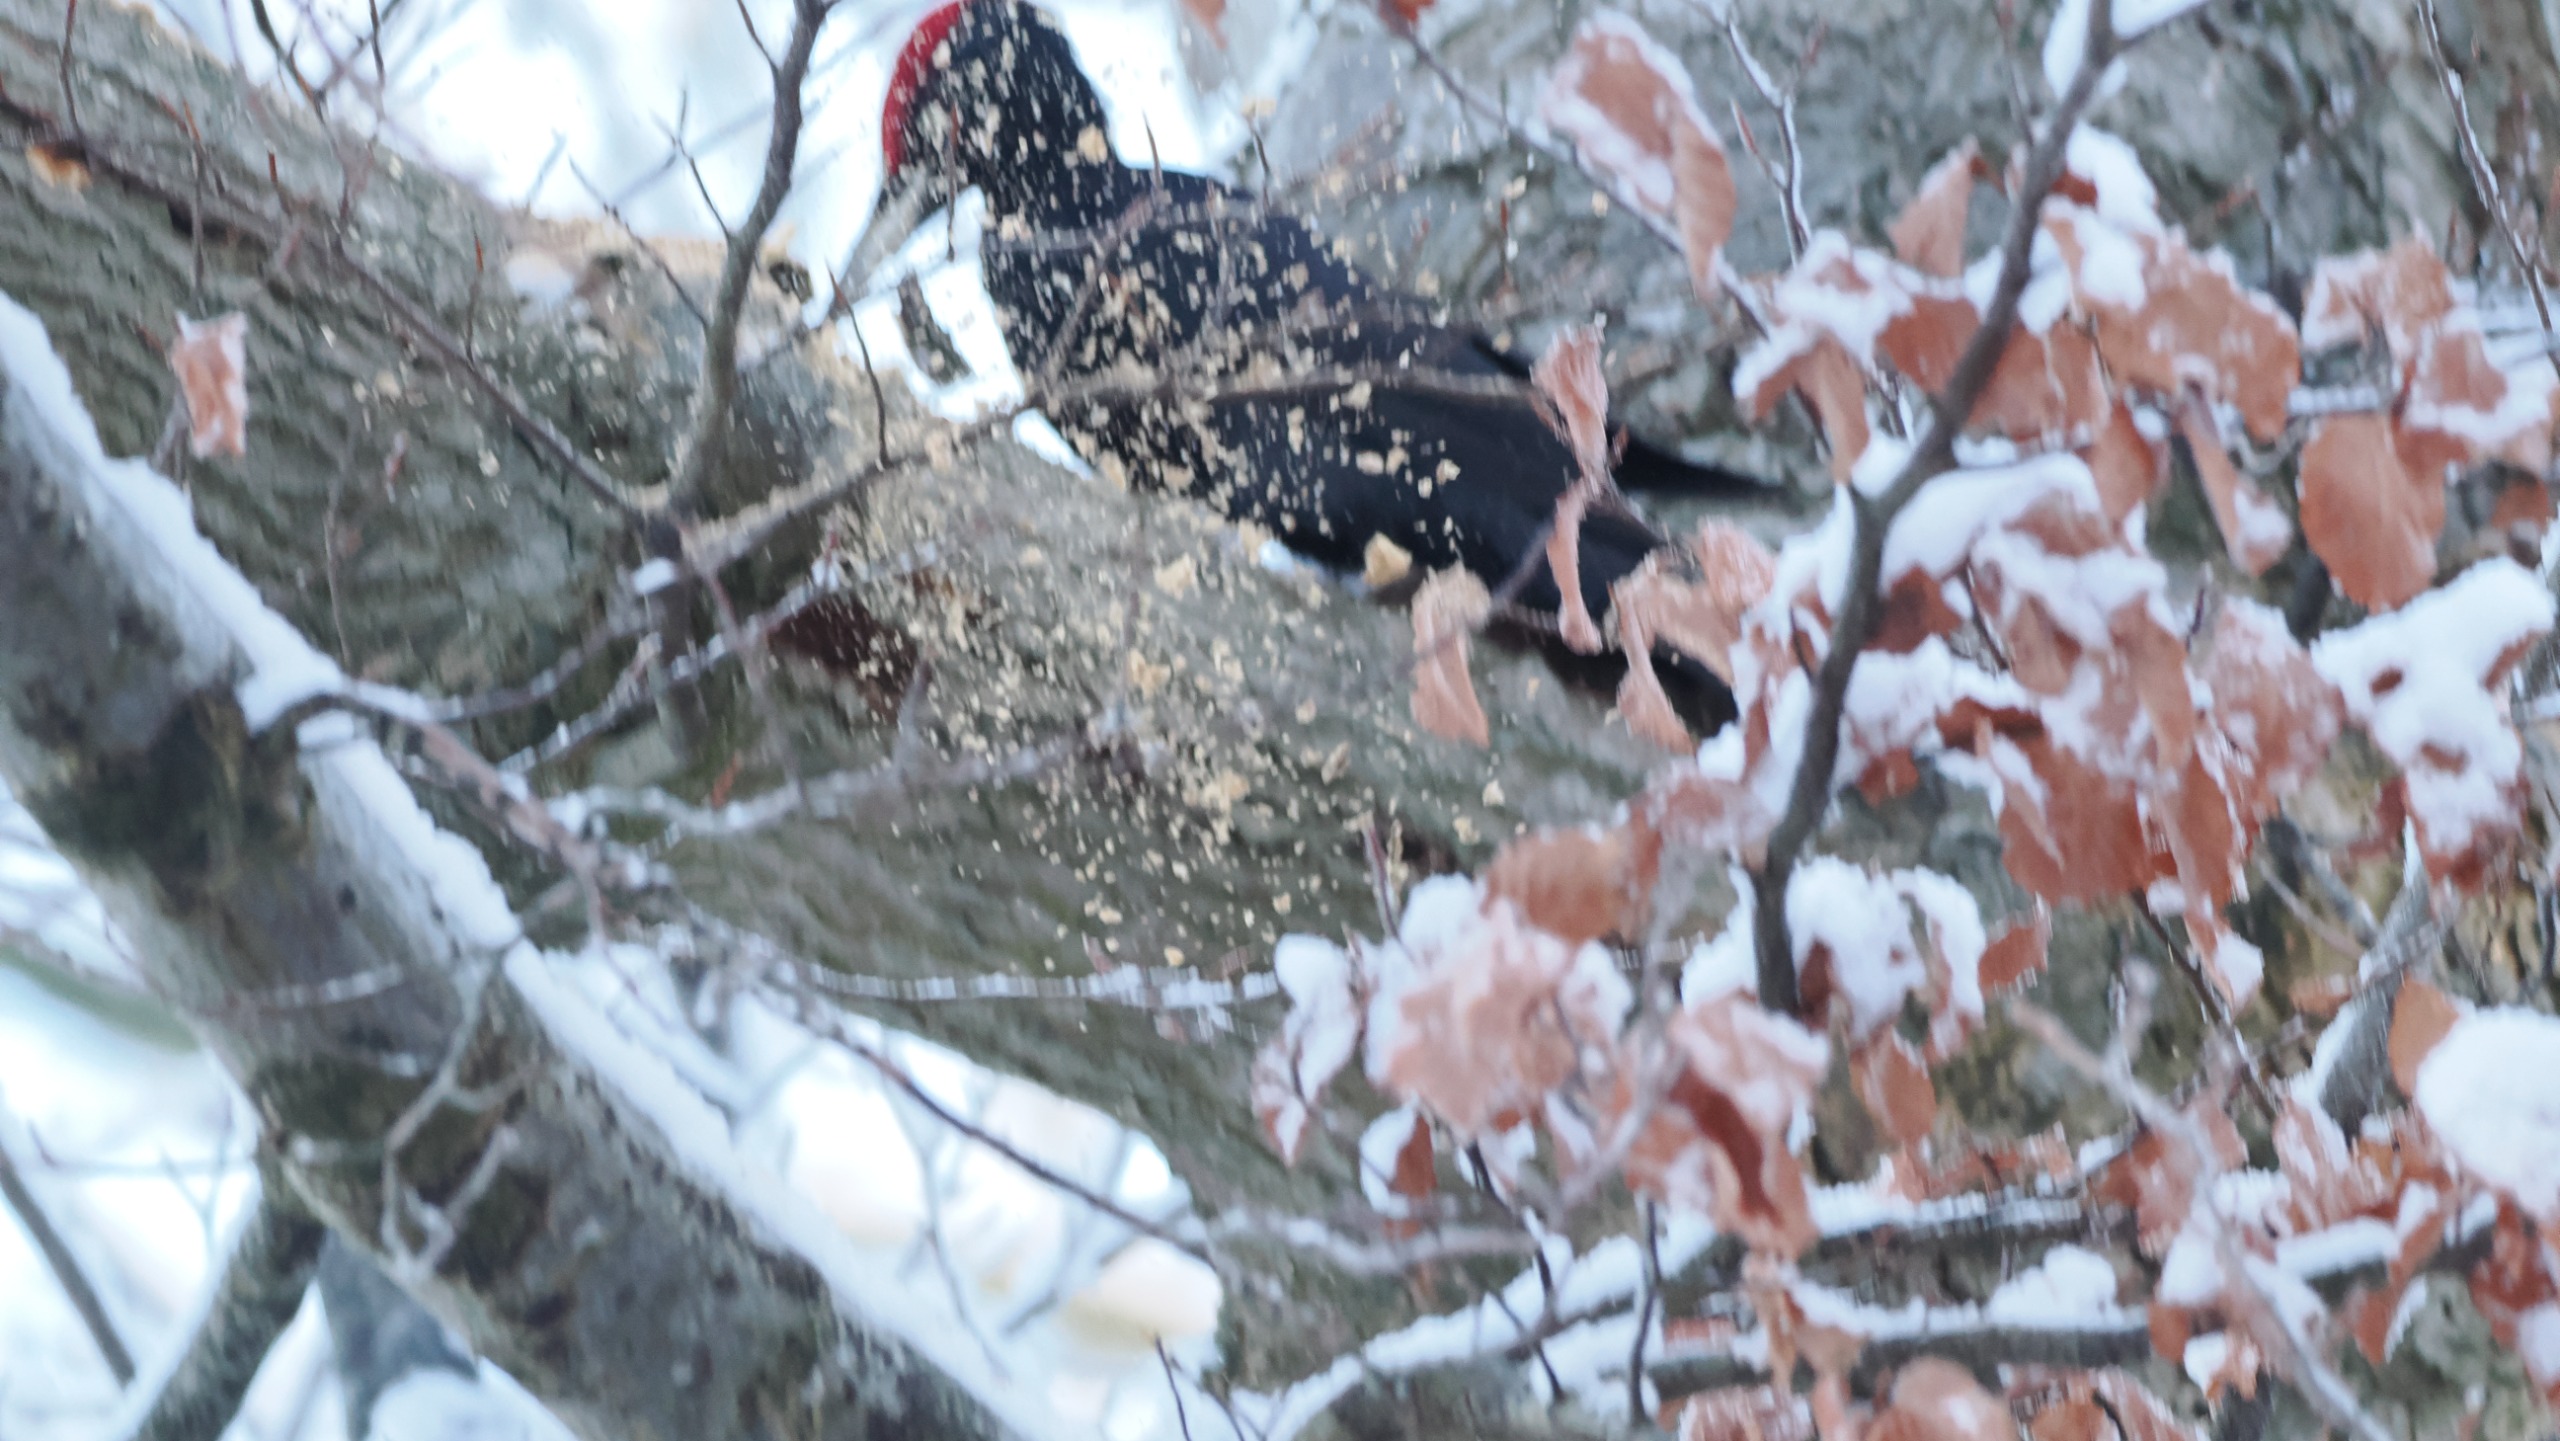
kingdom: Animalia
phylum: Chordata
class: Aves
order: Piciformes
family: Picidae
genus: Dryocopus
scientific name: Dryocopus martius
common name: Sortspætte
